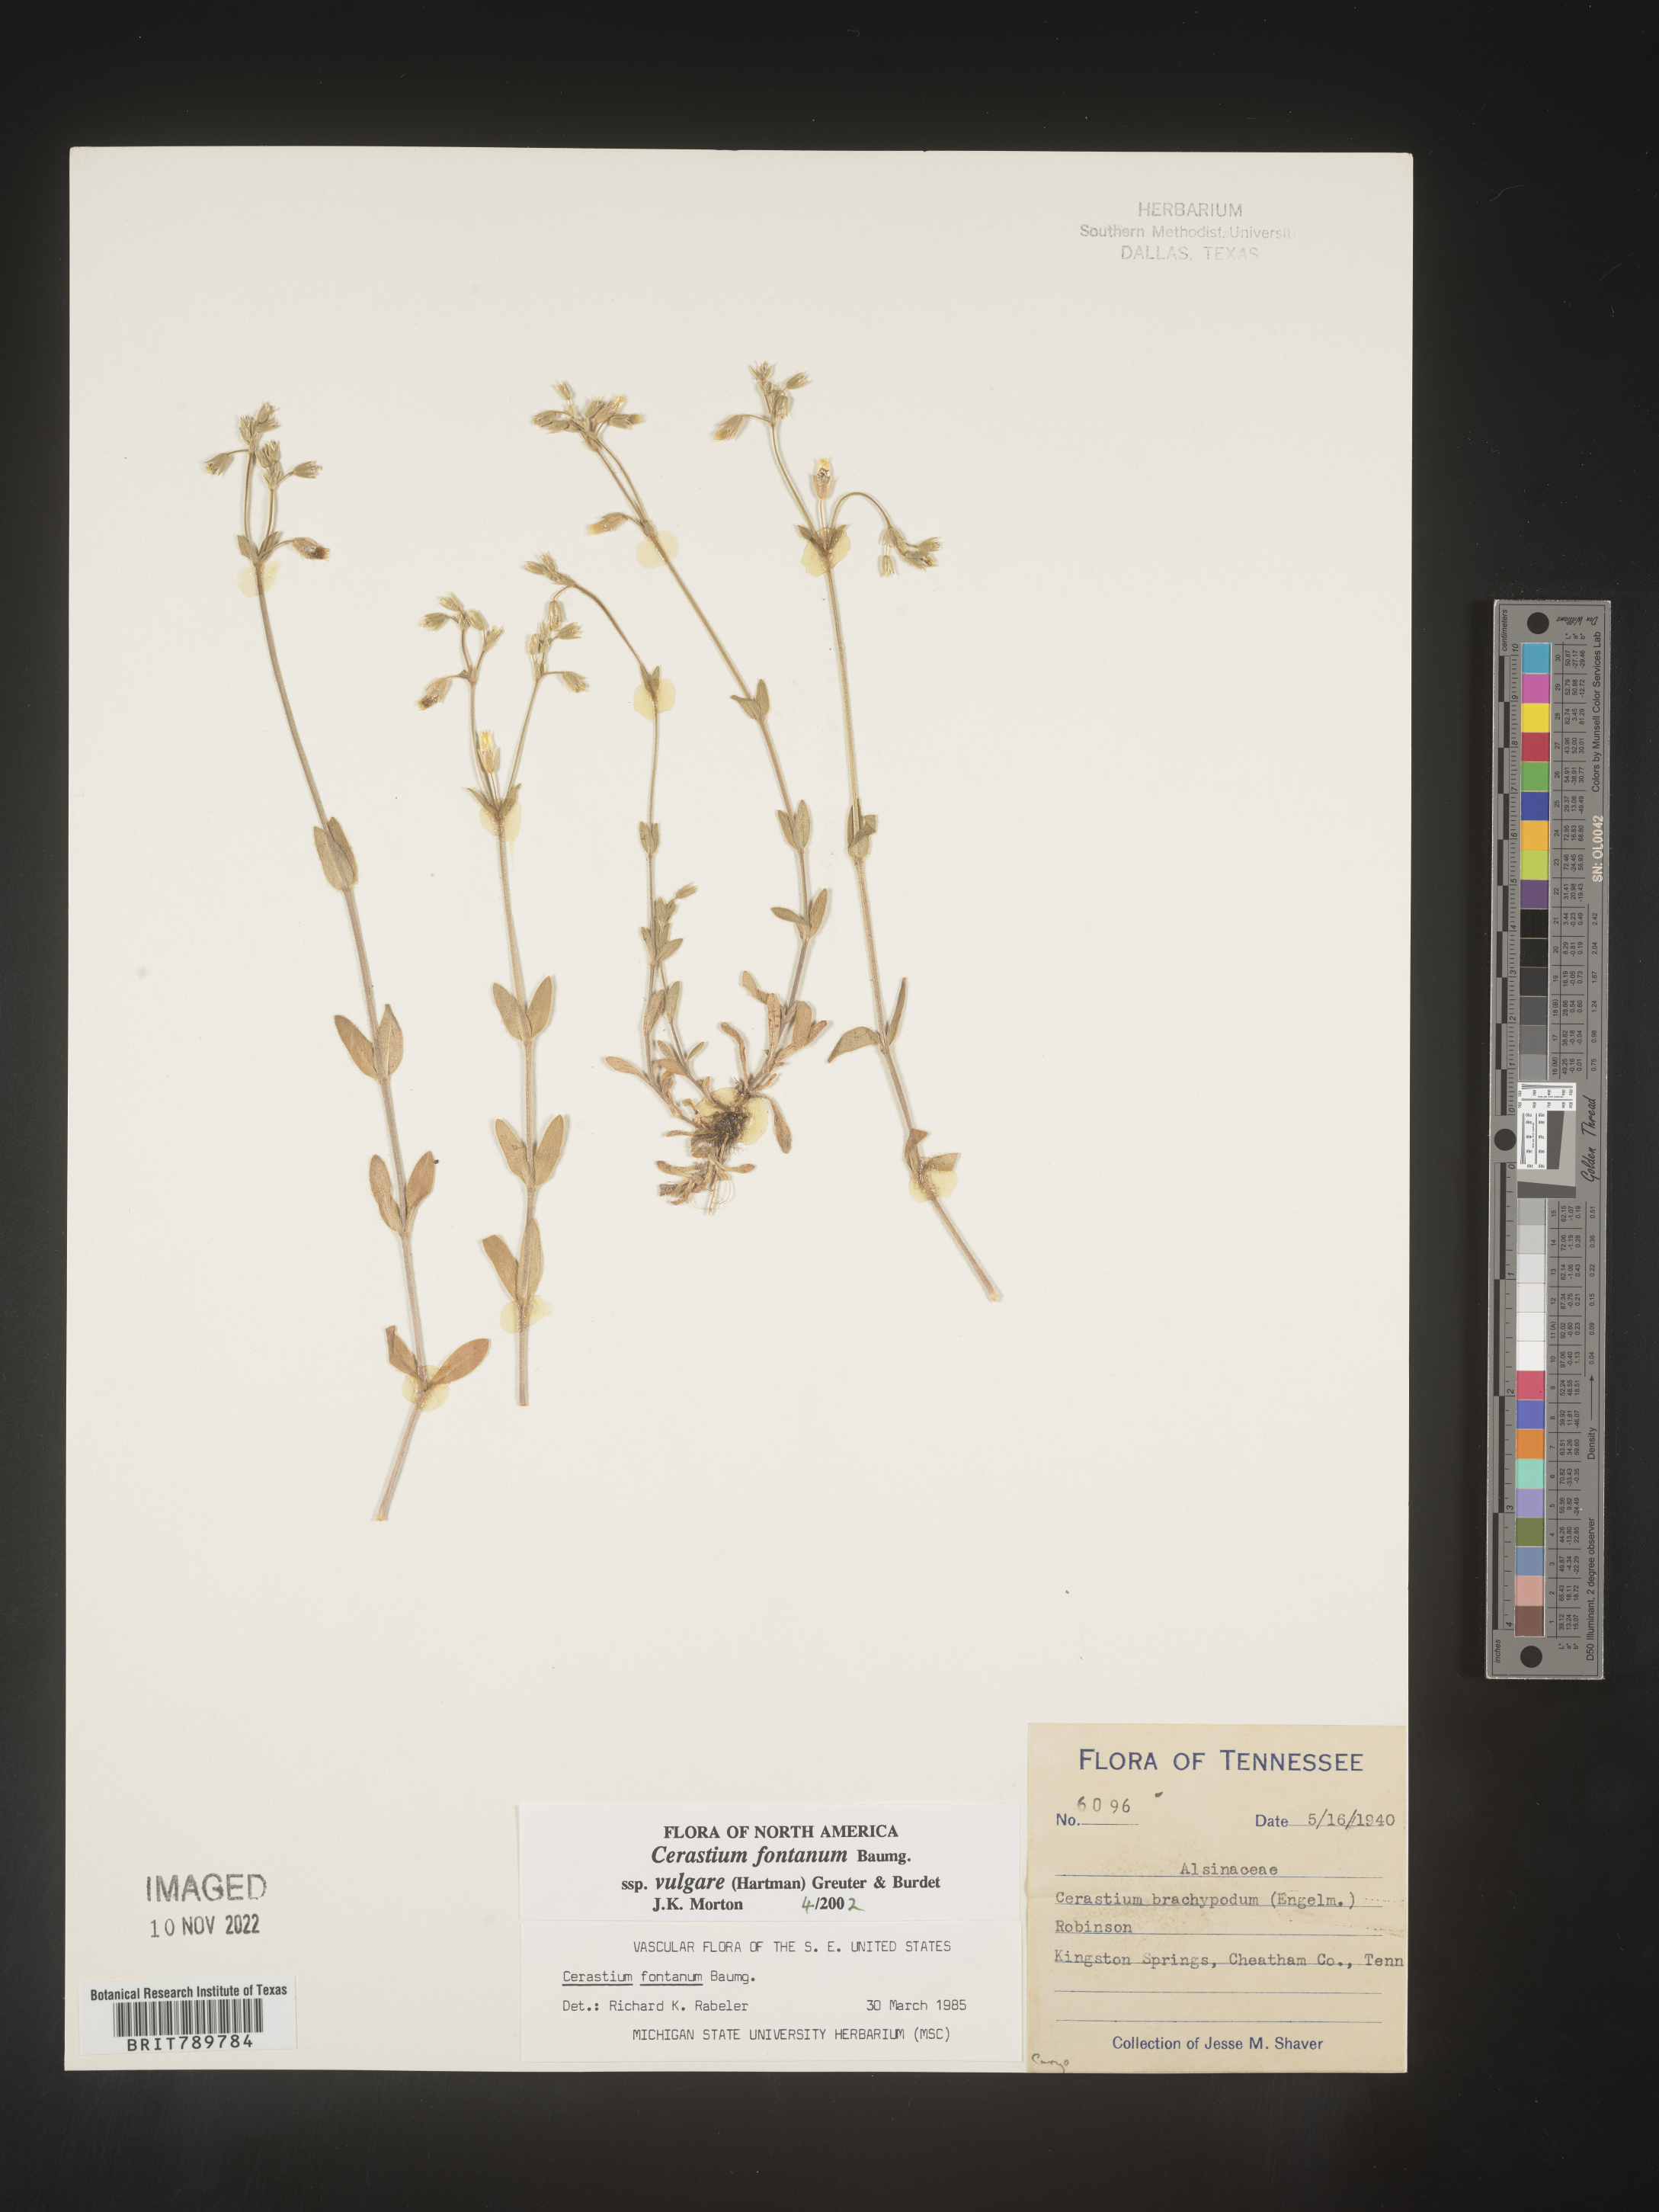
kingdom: Plantae
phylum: Tracheophyta
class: Magnoliopsida
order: Caryophyllales
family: Caryophyllaceae
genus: Cerastium
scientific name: Cerastium fontanum
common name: Common mouse-ear
